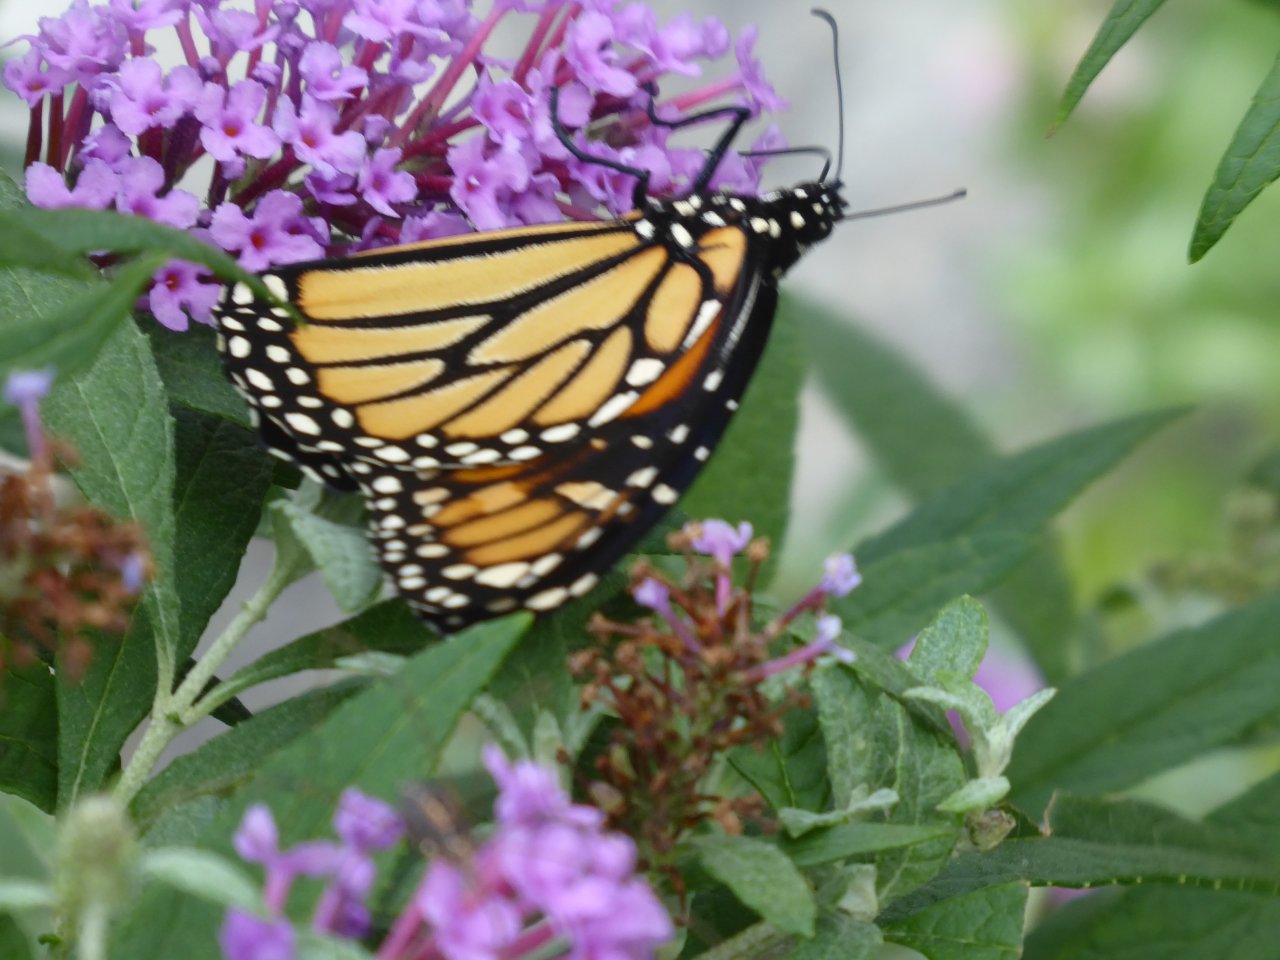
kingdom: Animalia
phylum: Arthropoda
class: Insecta
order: Lepidoptera
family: Nymphalidae
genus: Danaus
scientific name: Danaus plexippus
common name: Monarch
